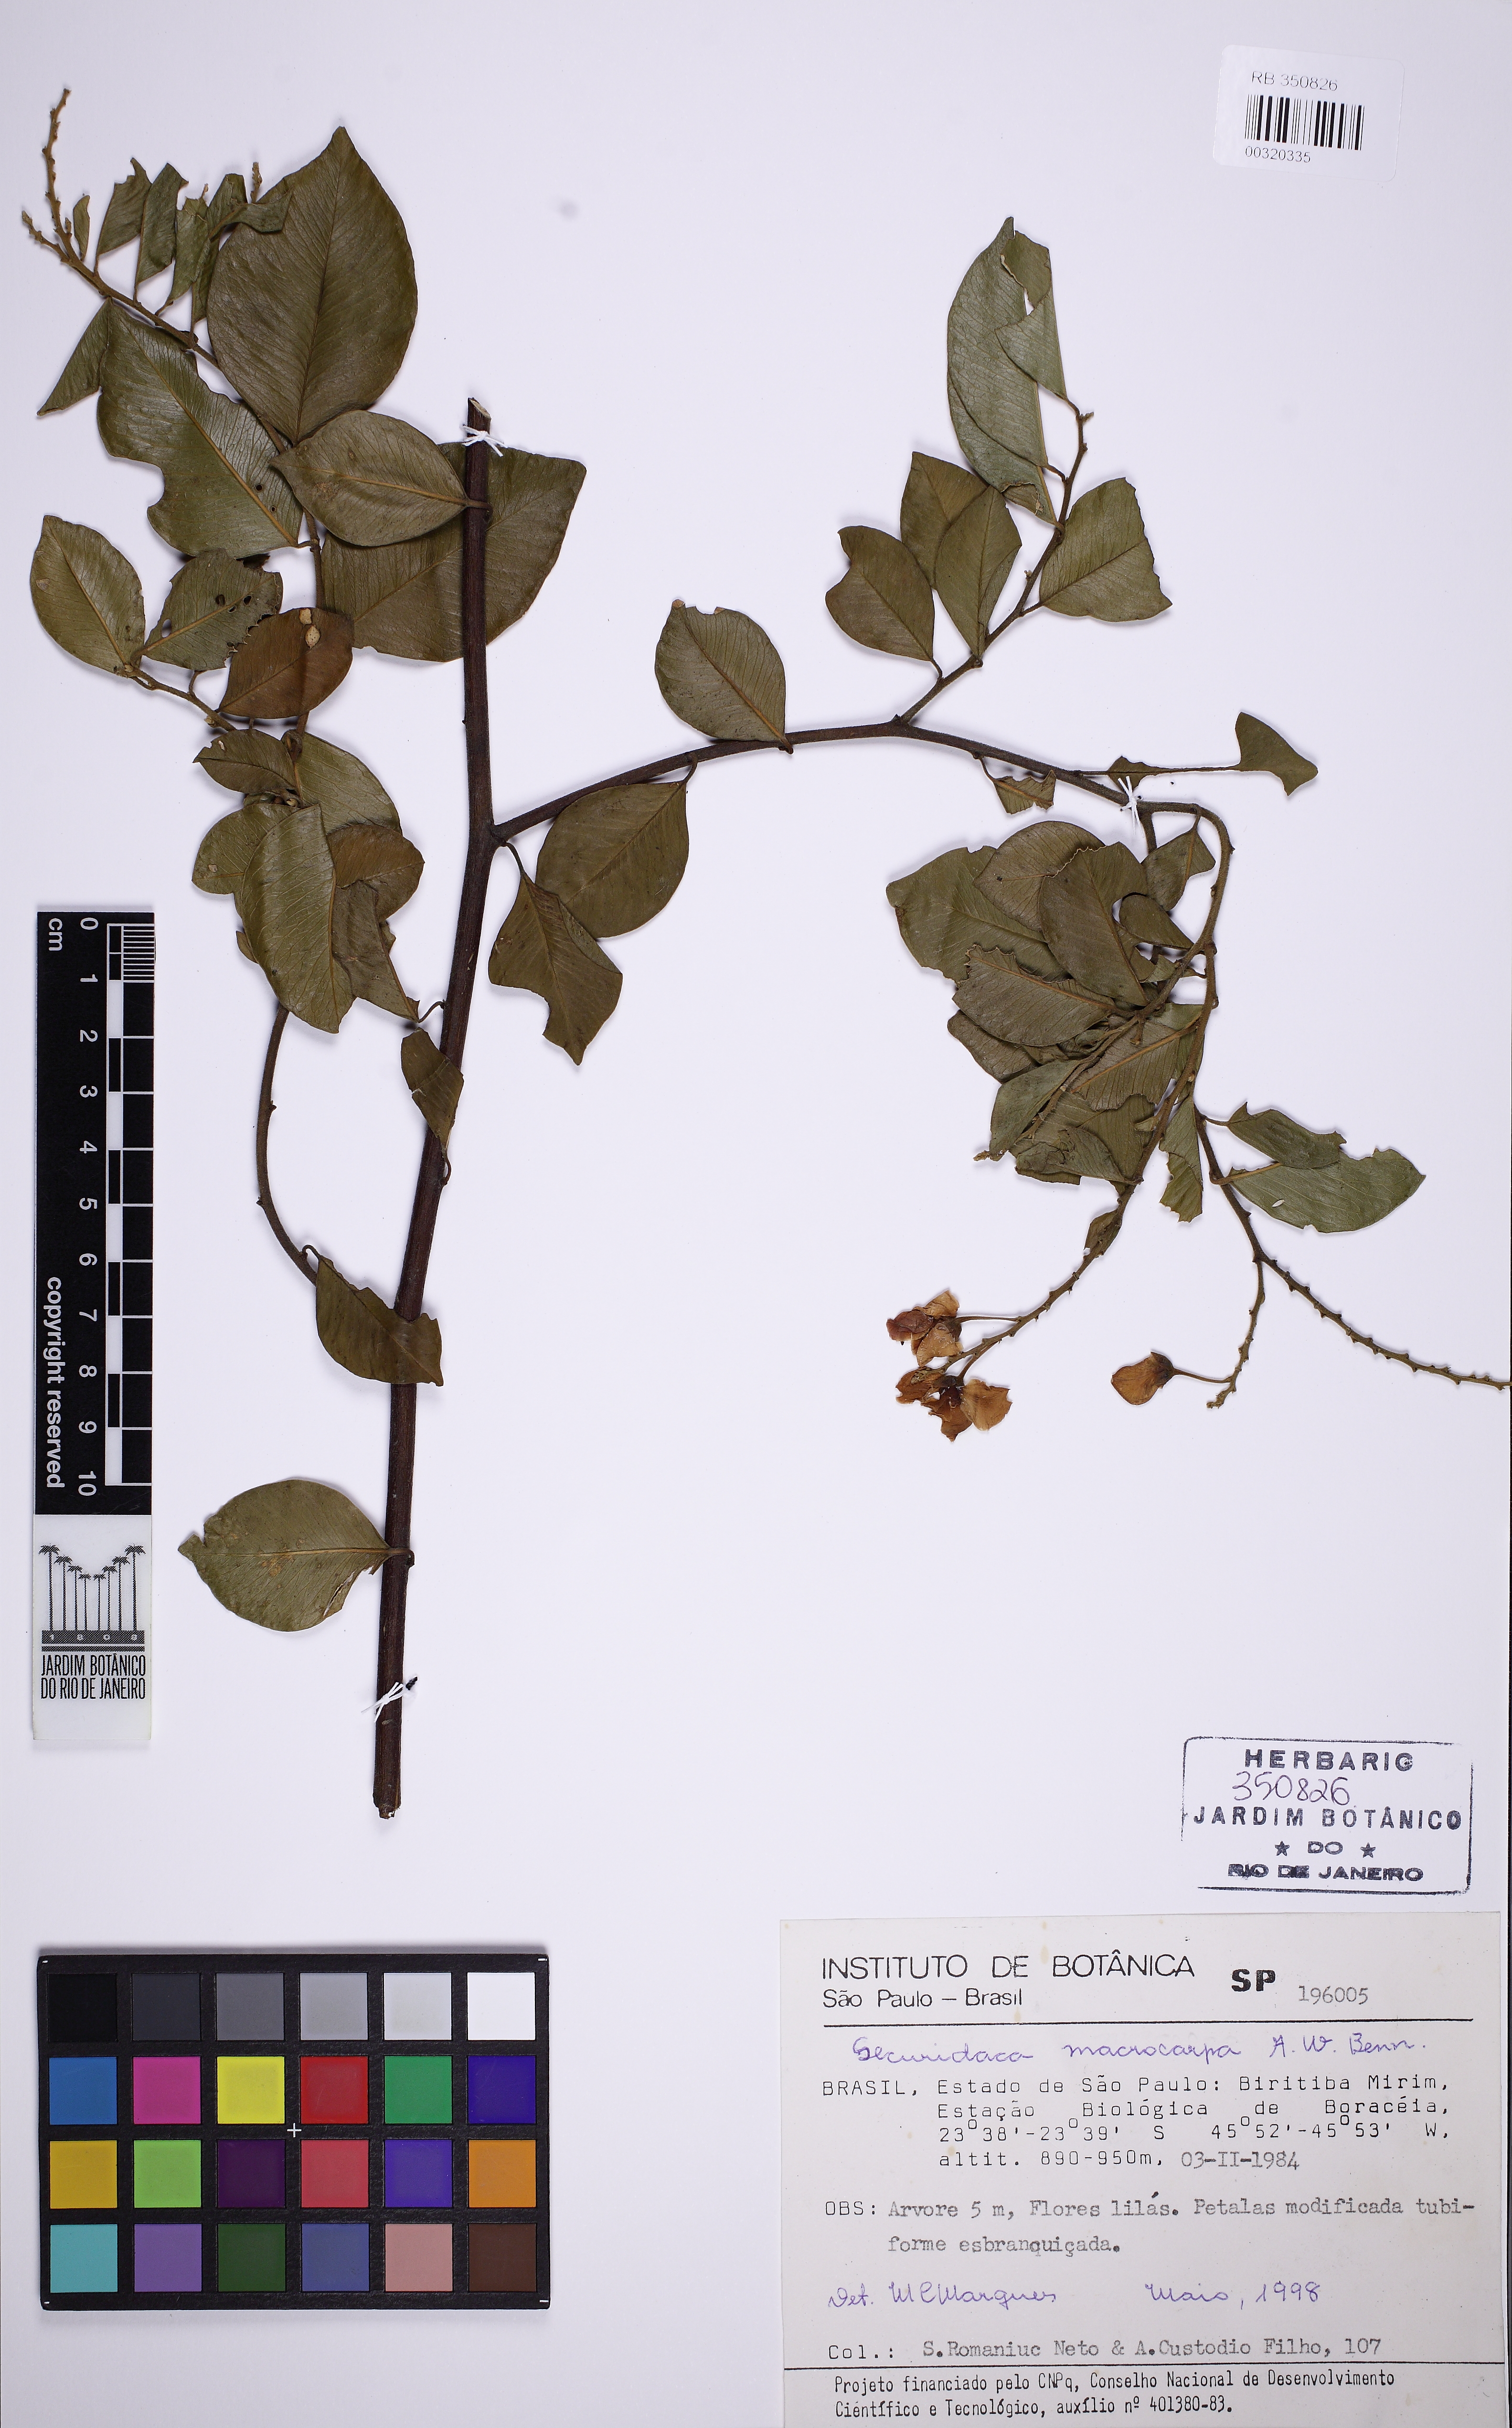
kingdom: Plantae
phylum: Tracheophyta
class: Magnoliopsida
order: Fabales
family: Polygalaceae
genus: Securidaca
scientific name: Securidaca macrocarpa
